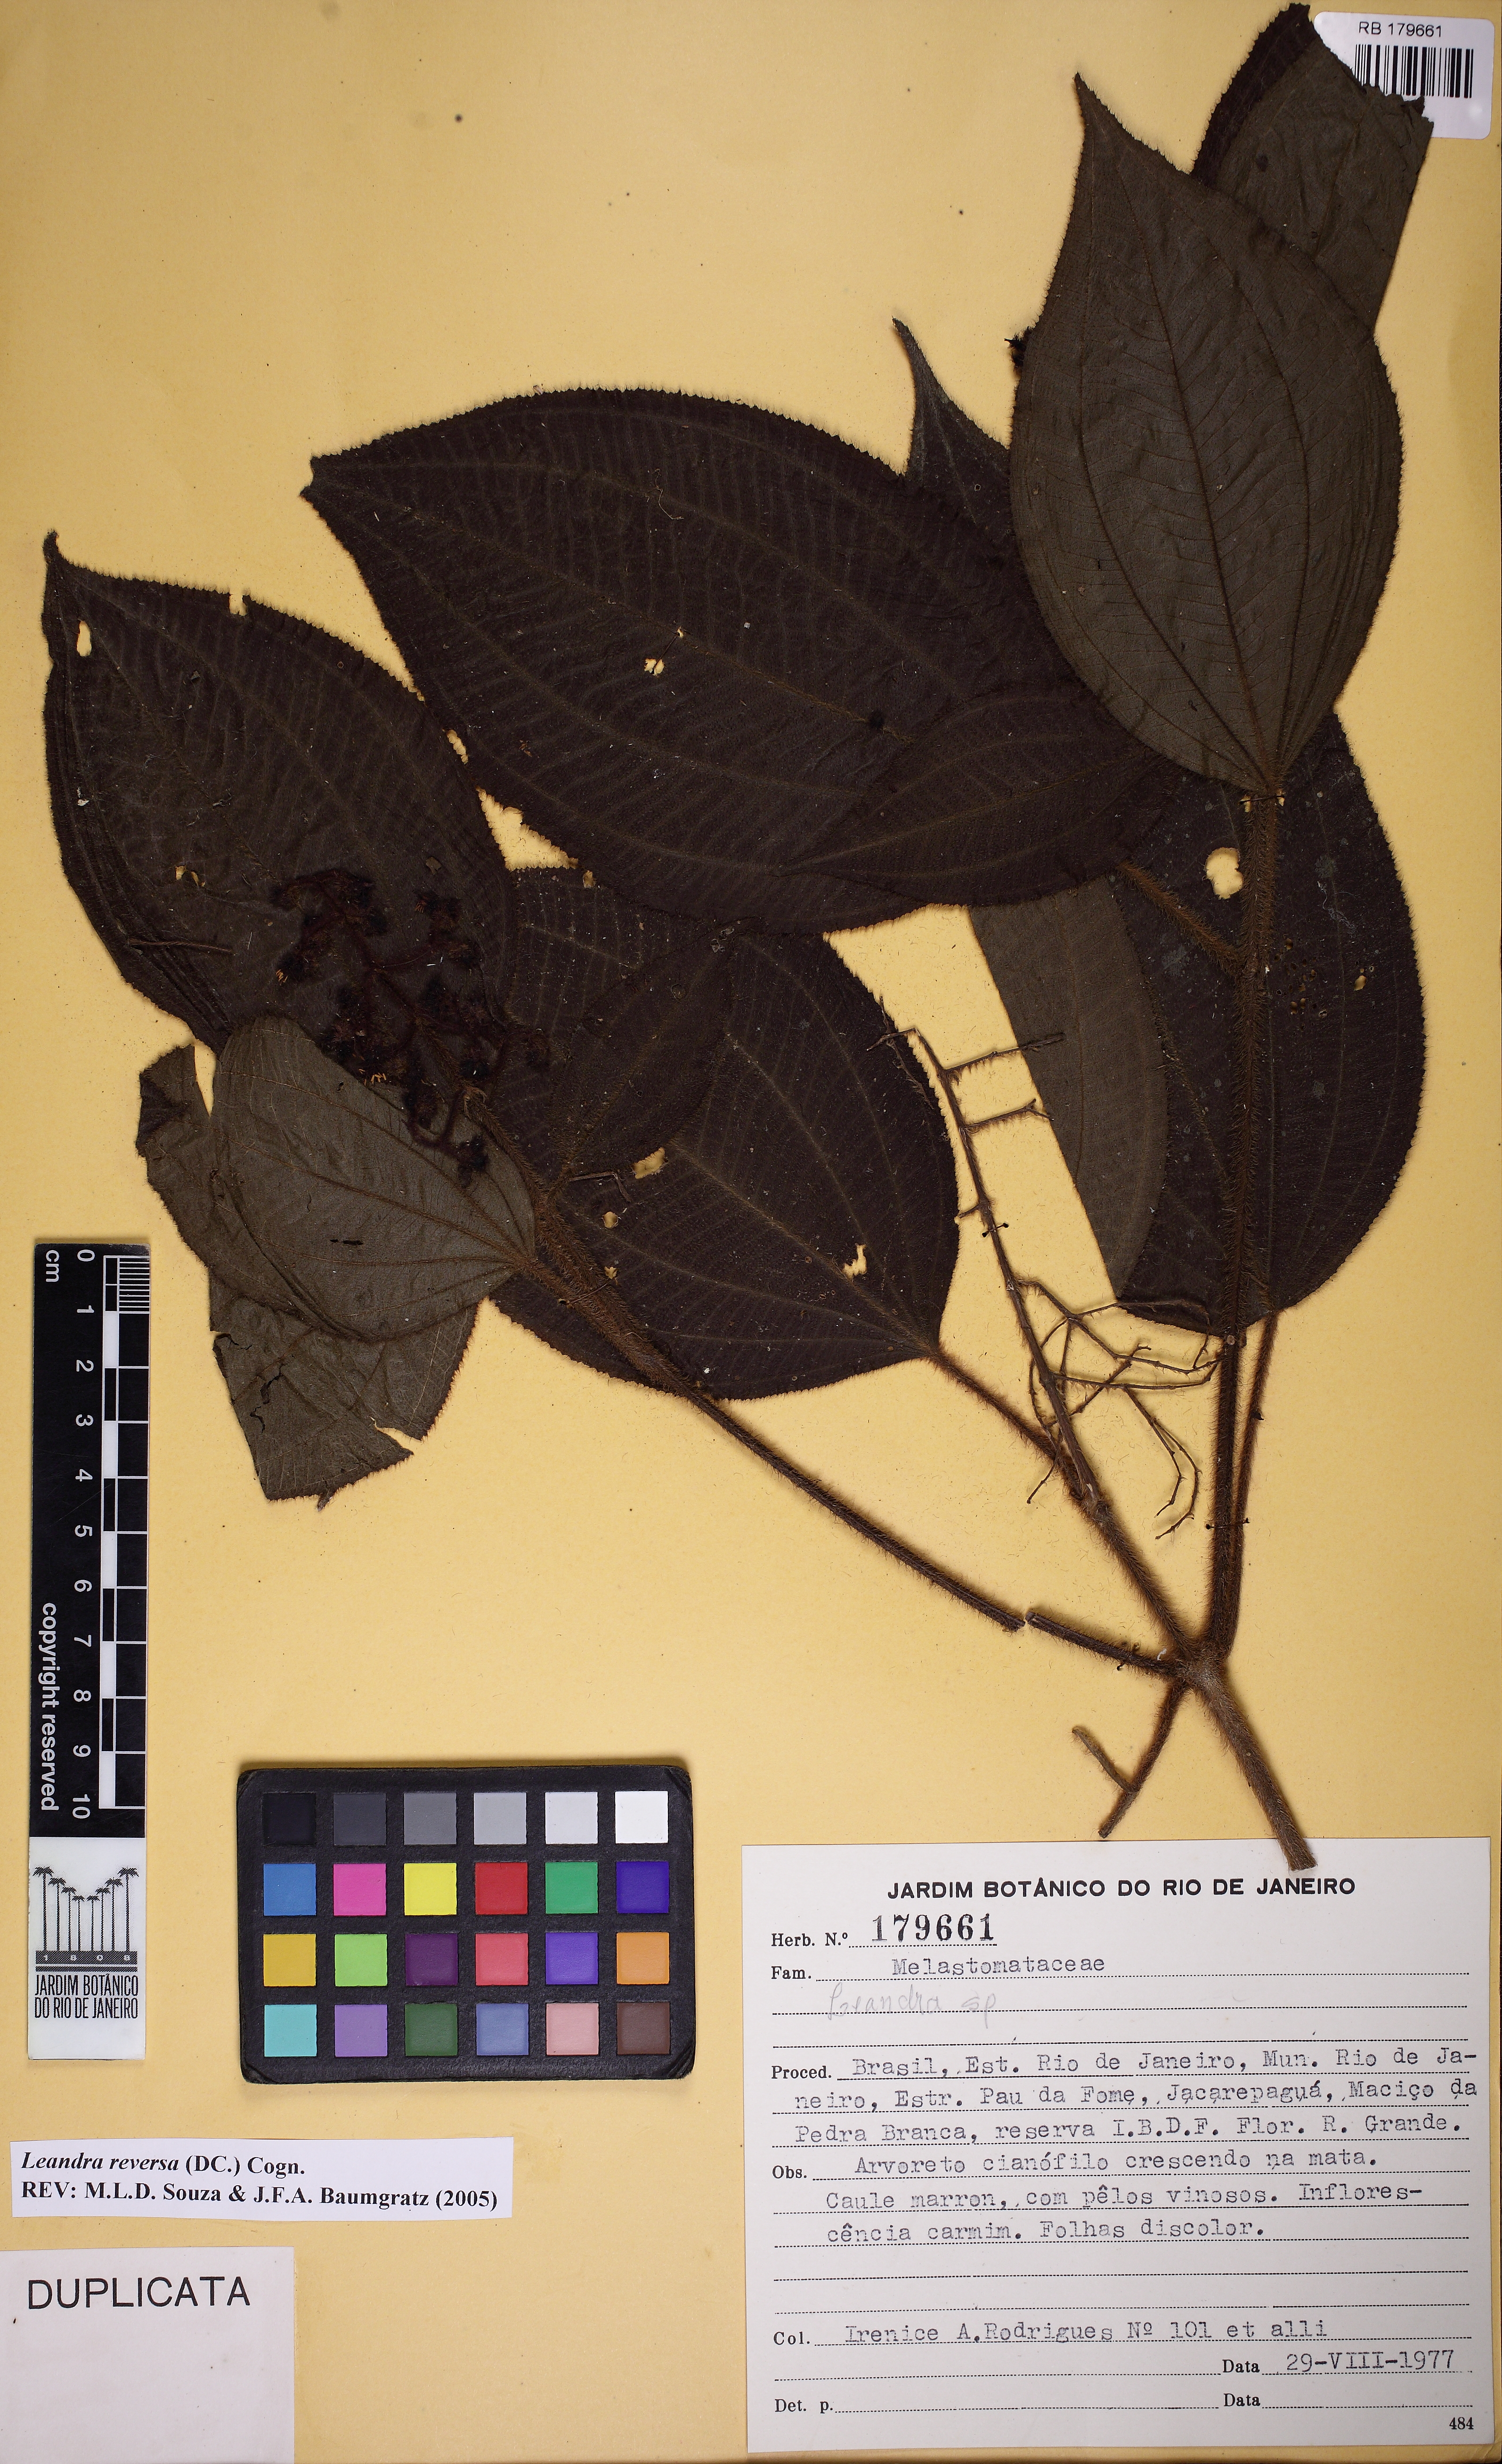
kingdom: Plantae
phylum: Tracheophyta
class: Magnoliopsida
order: Myrtales
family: Melastomataceae
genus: Miconia
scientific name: Miconia reversa
